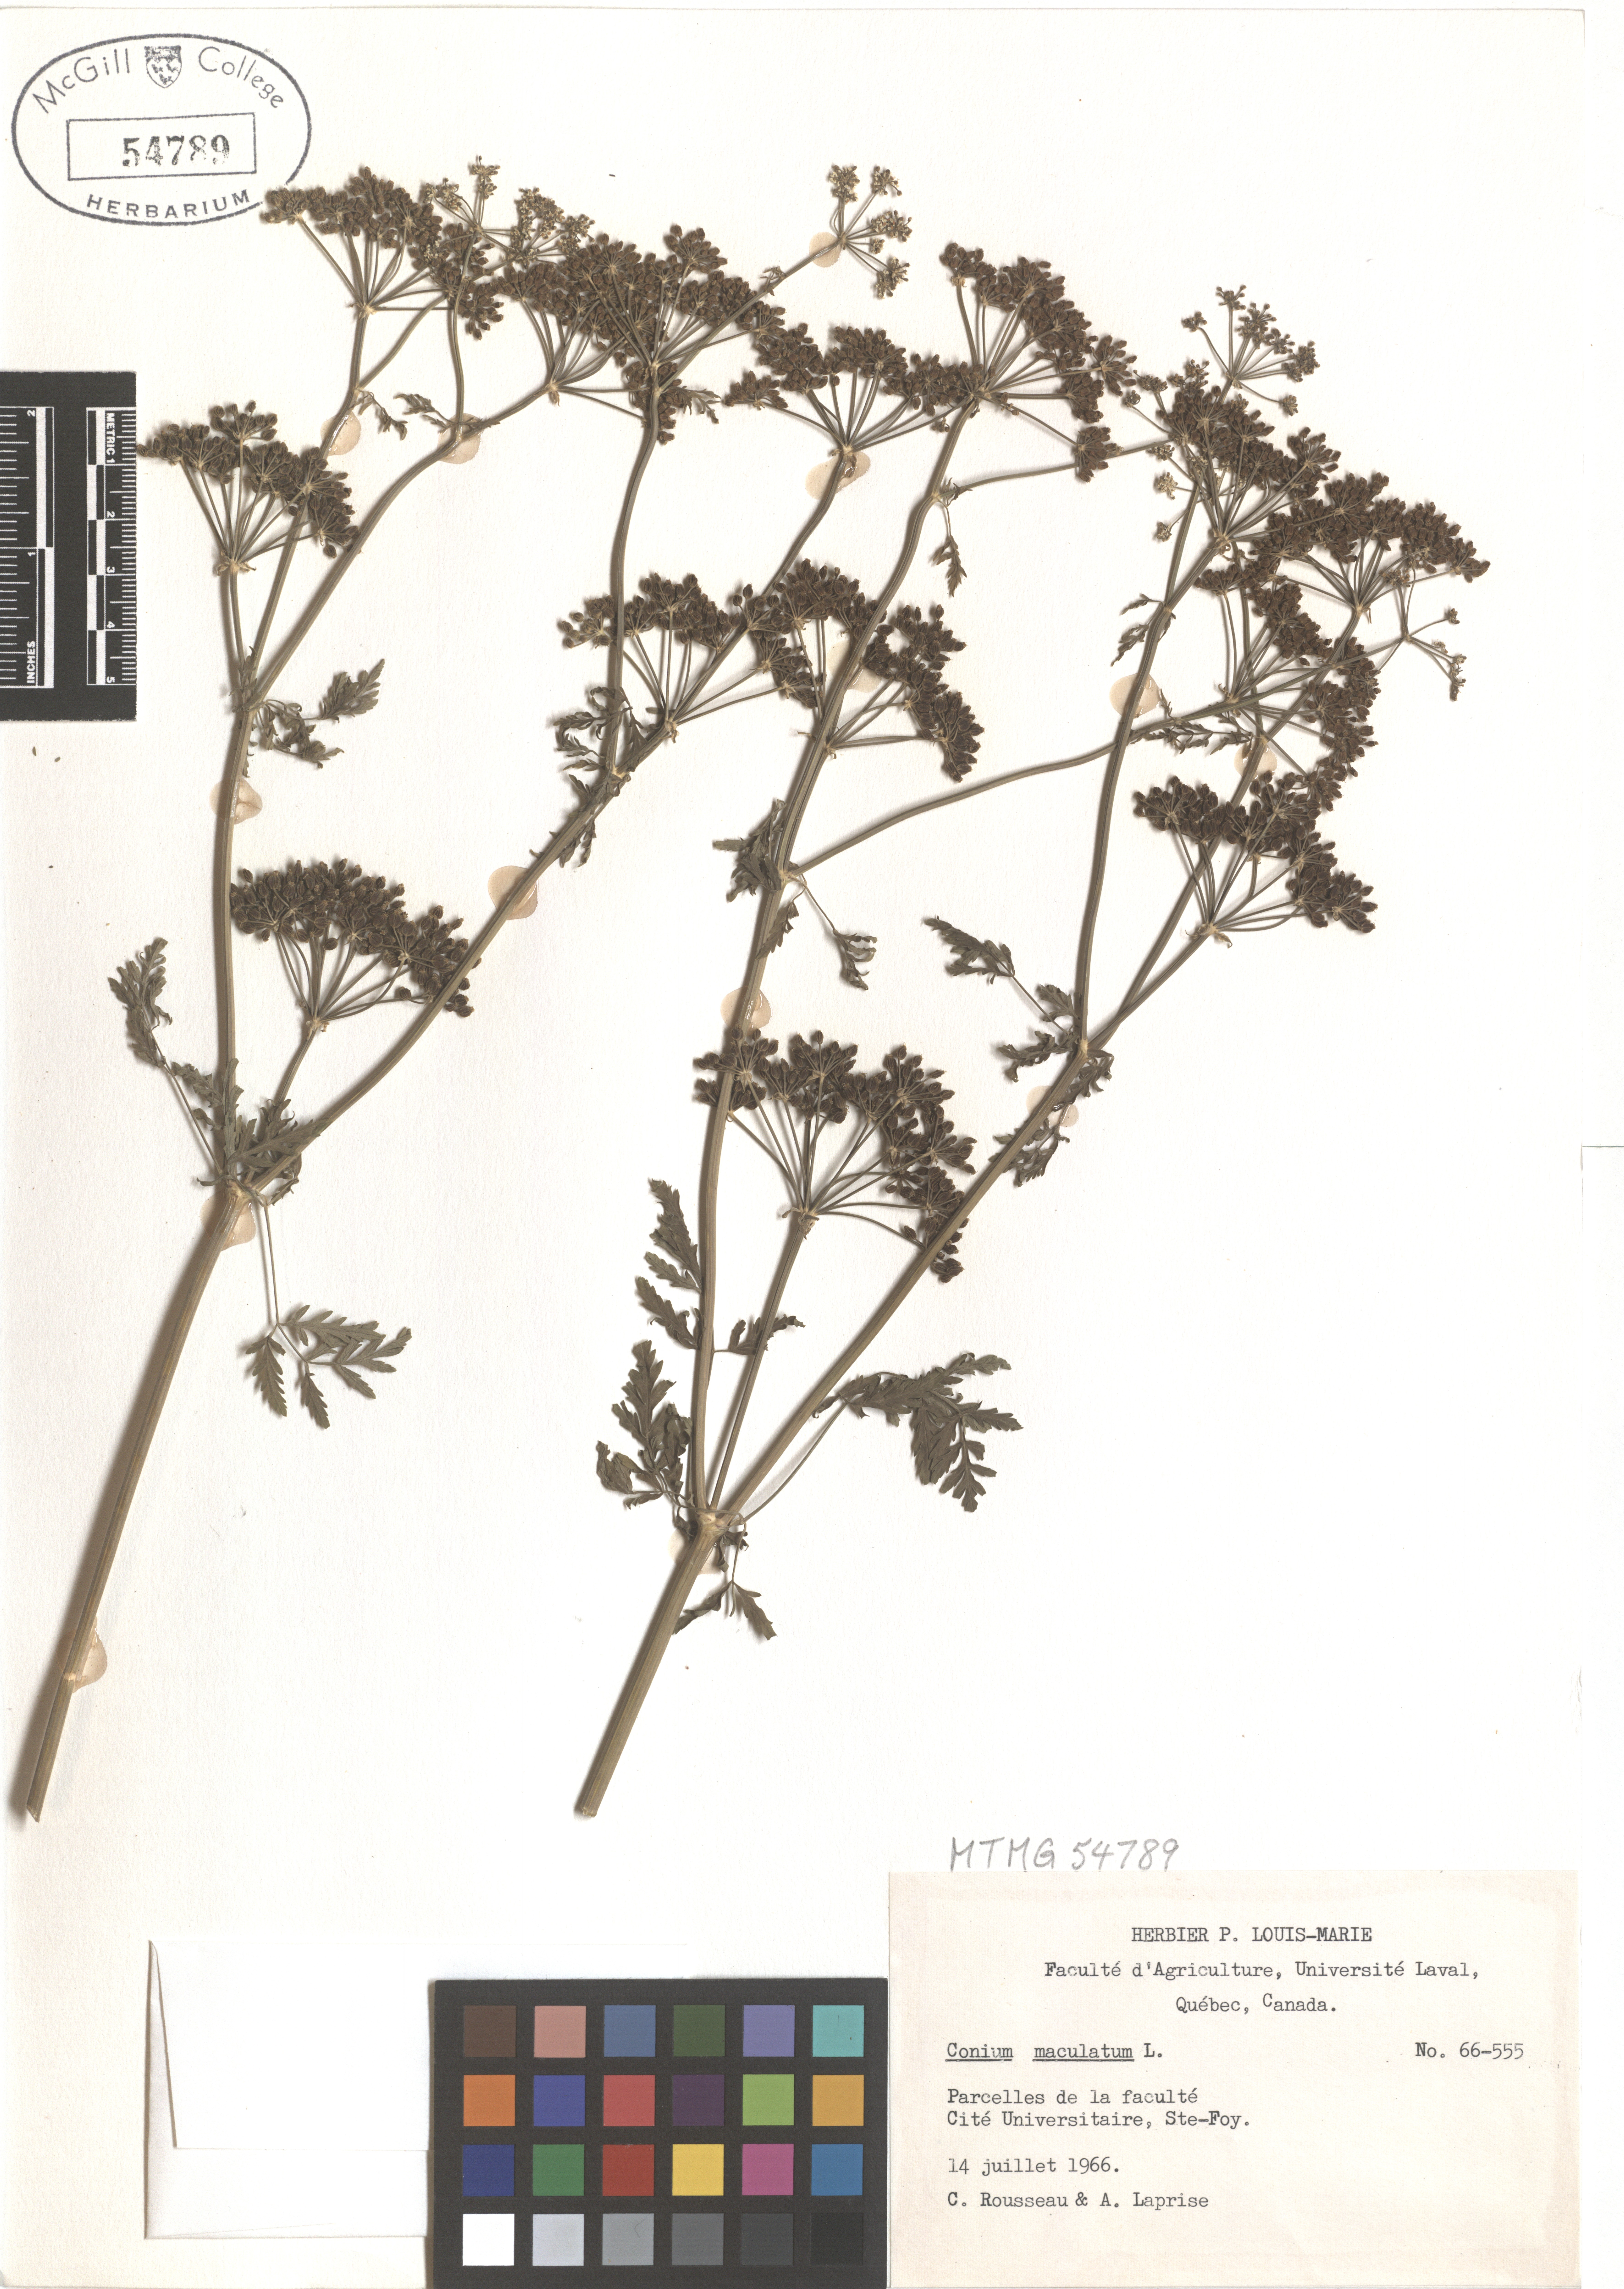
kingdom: Plantae
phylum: Tracheophyta
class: Magnoliopsida
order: Apiales
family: Apiaceae
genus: Conium
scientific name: Conium maculatum
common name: Hemlock
